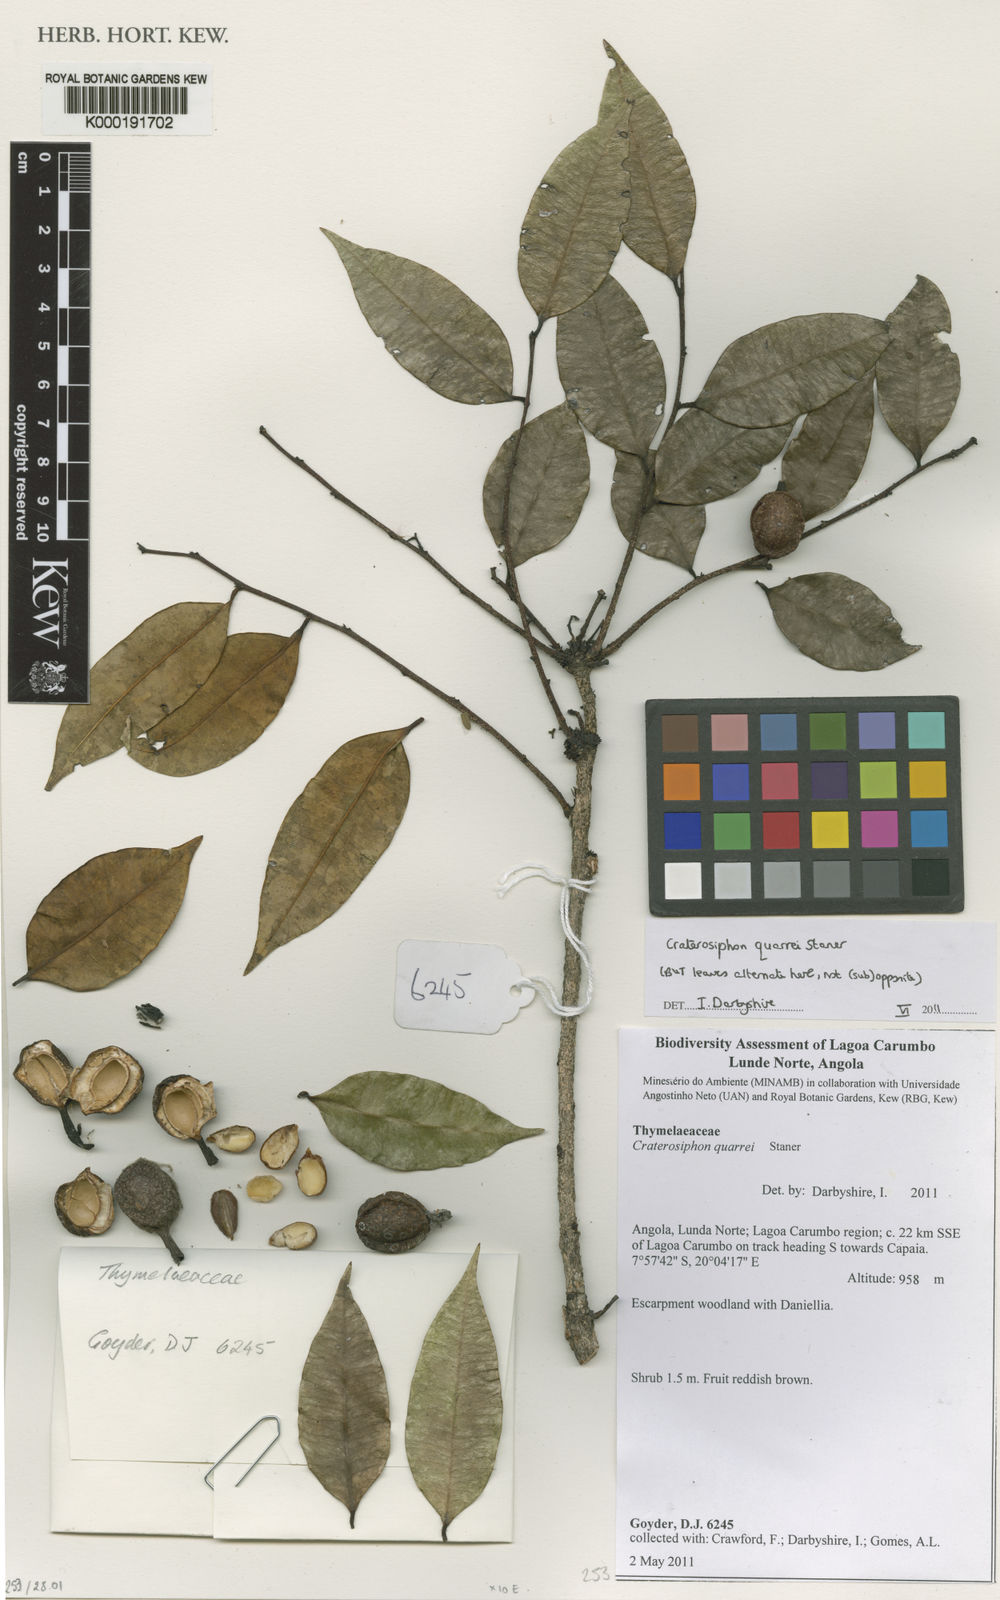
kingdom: Plantae
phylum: Tracheophyta
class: Magnoliopsida
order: Malvales
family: Thymelaeaceae
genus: Craterosiphon
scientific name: Craterosiphon quarrei
